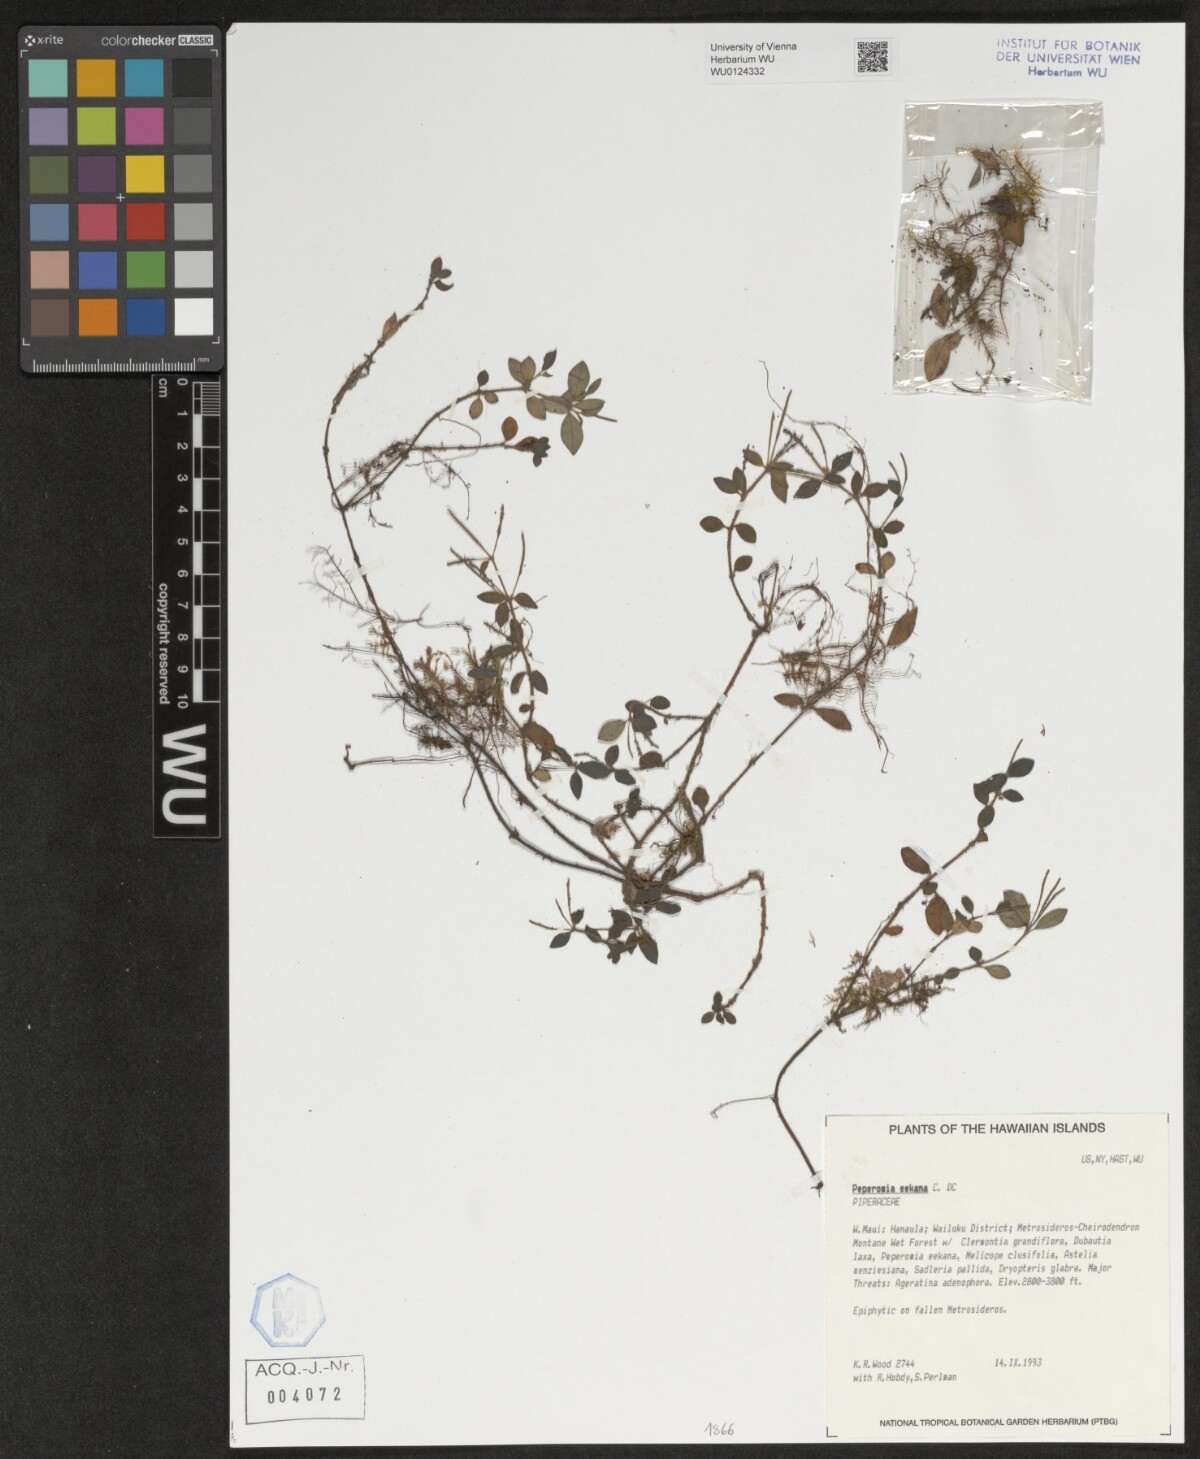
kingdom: Plantae
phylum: Tracheophyta
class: Magnoliopsida
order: Piperales
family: Piperaceae
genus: Peperomia
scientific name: Peperomia eekana
